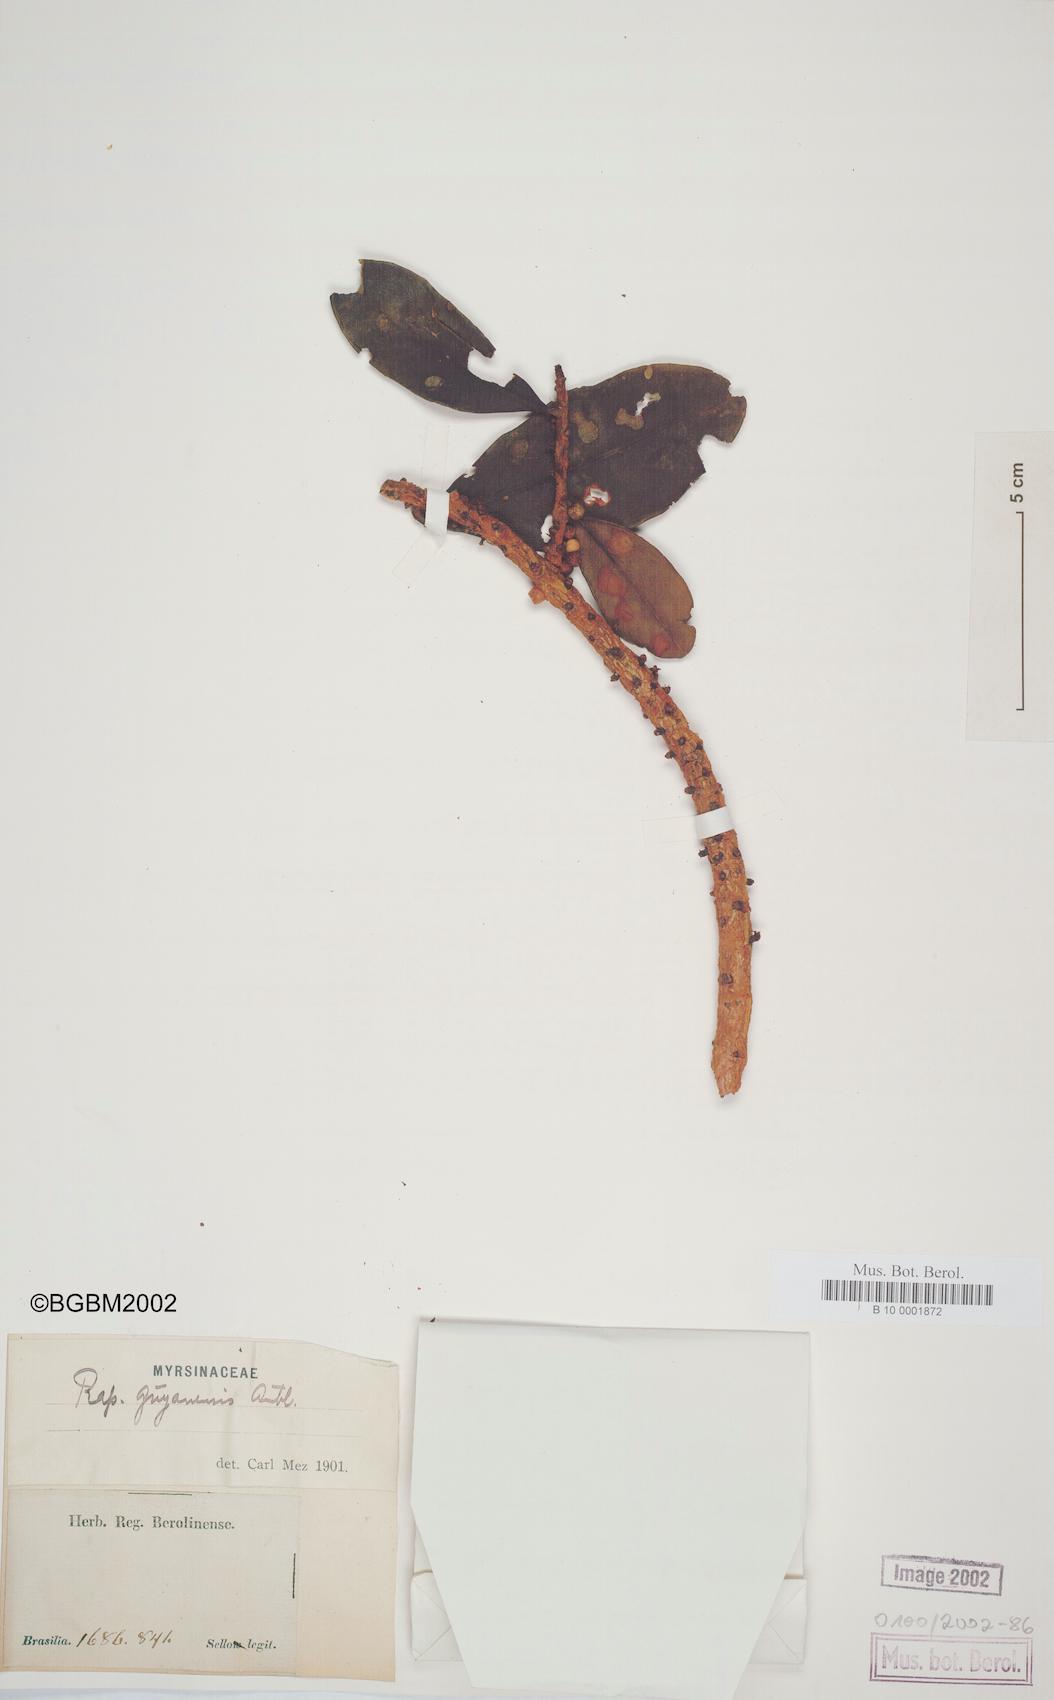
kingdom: Plantae
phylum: Tracheophyta
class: Magnoliopsida
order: Ericales
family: Primulaceae
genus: Myrsine
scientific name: Myrsine guianensis
